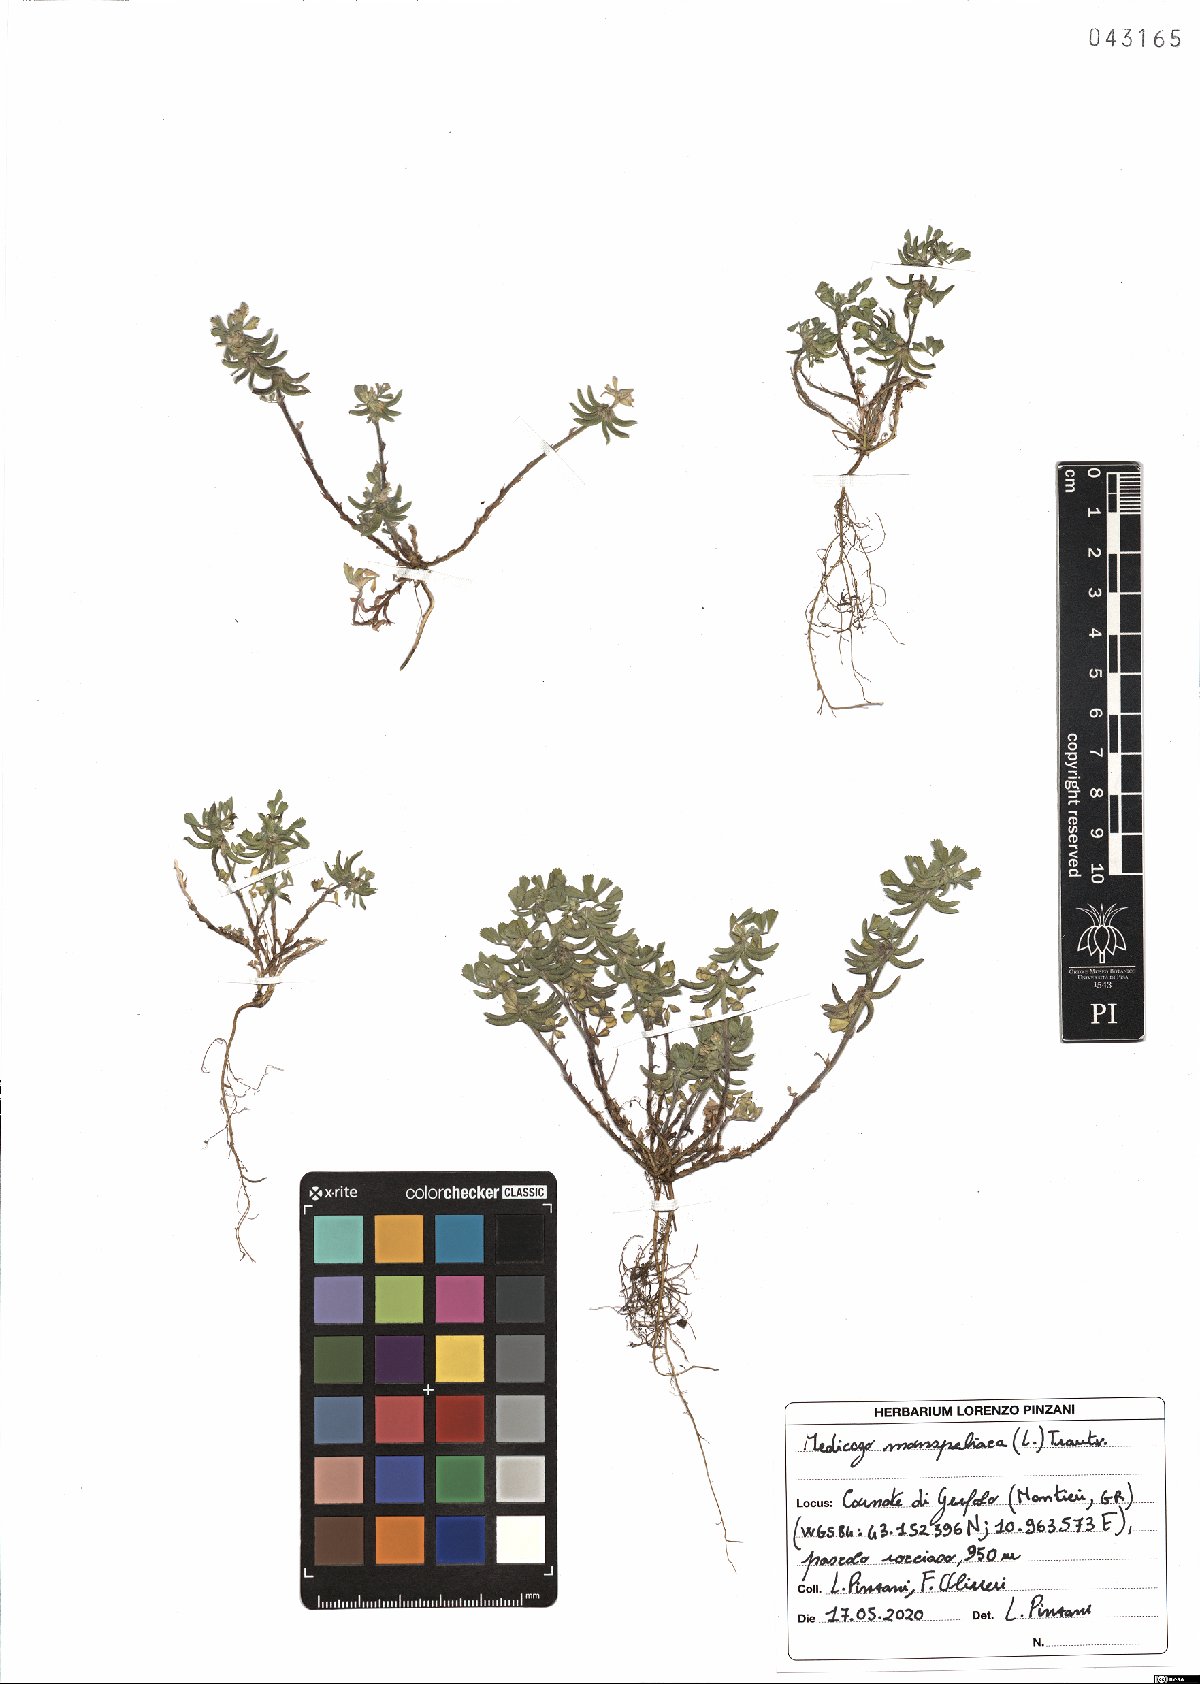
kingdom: Plantae
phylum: Tracheophyta
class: Magnoliopsida
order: Fabales
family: Fabaceae
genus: Medicago
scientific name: Medicago monspeliaca
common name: Hairy medick
